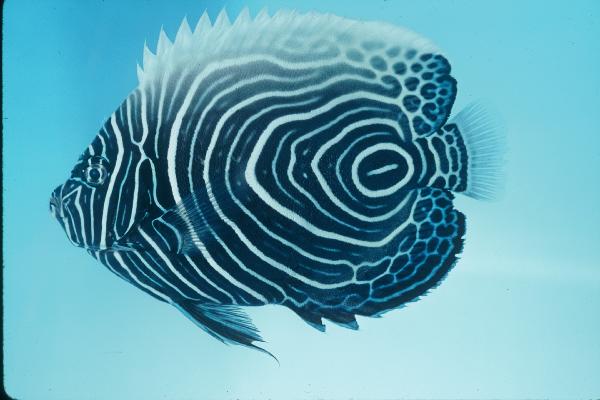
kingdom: Animalia
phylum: Chordata
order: Perciformes
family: Pomacanthidae
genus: Pomacanthus
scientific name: Pomacanthus imperator
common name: Emperor angelfish
